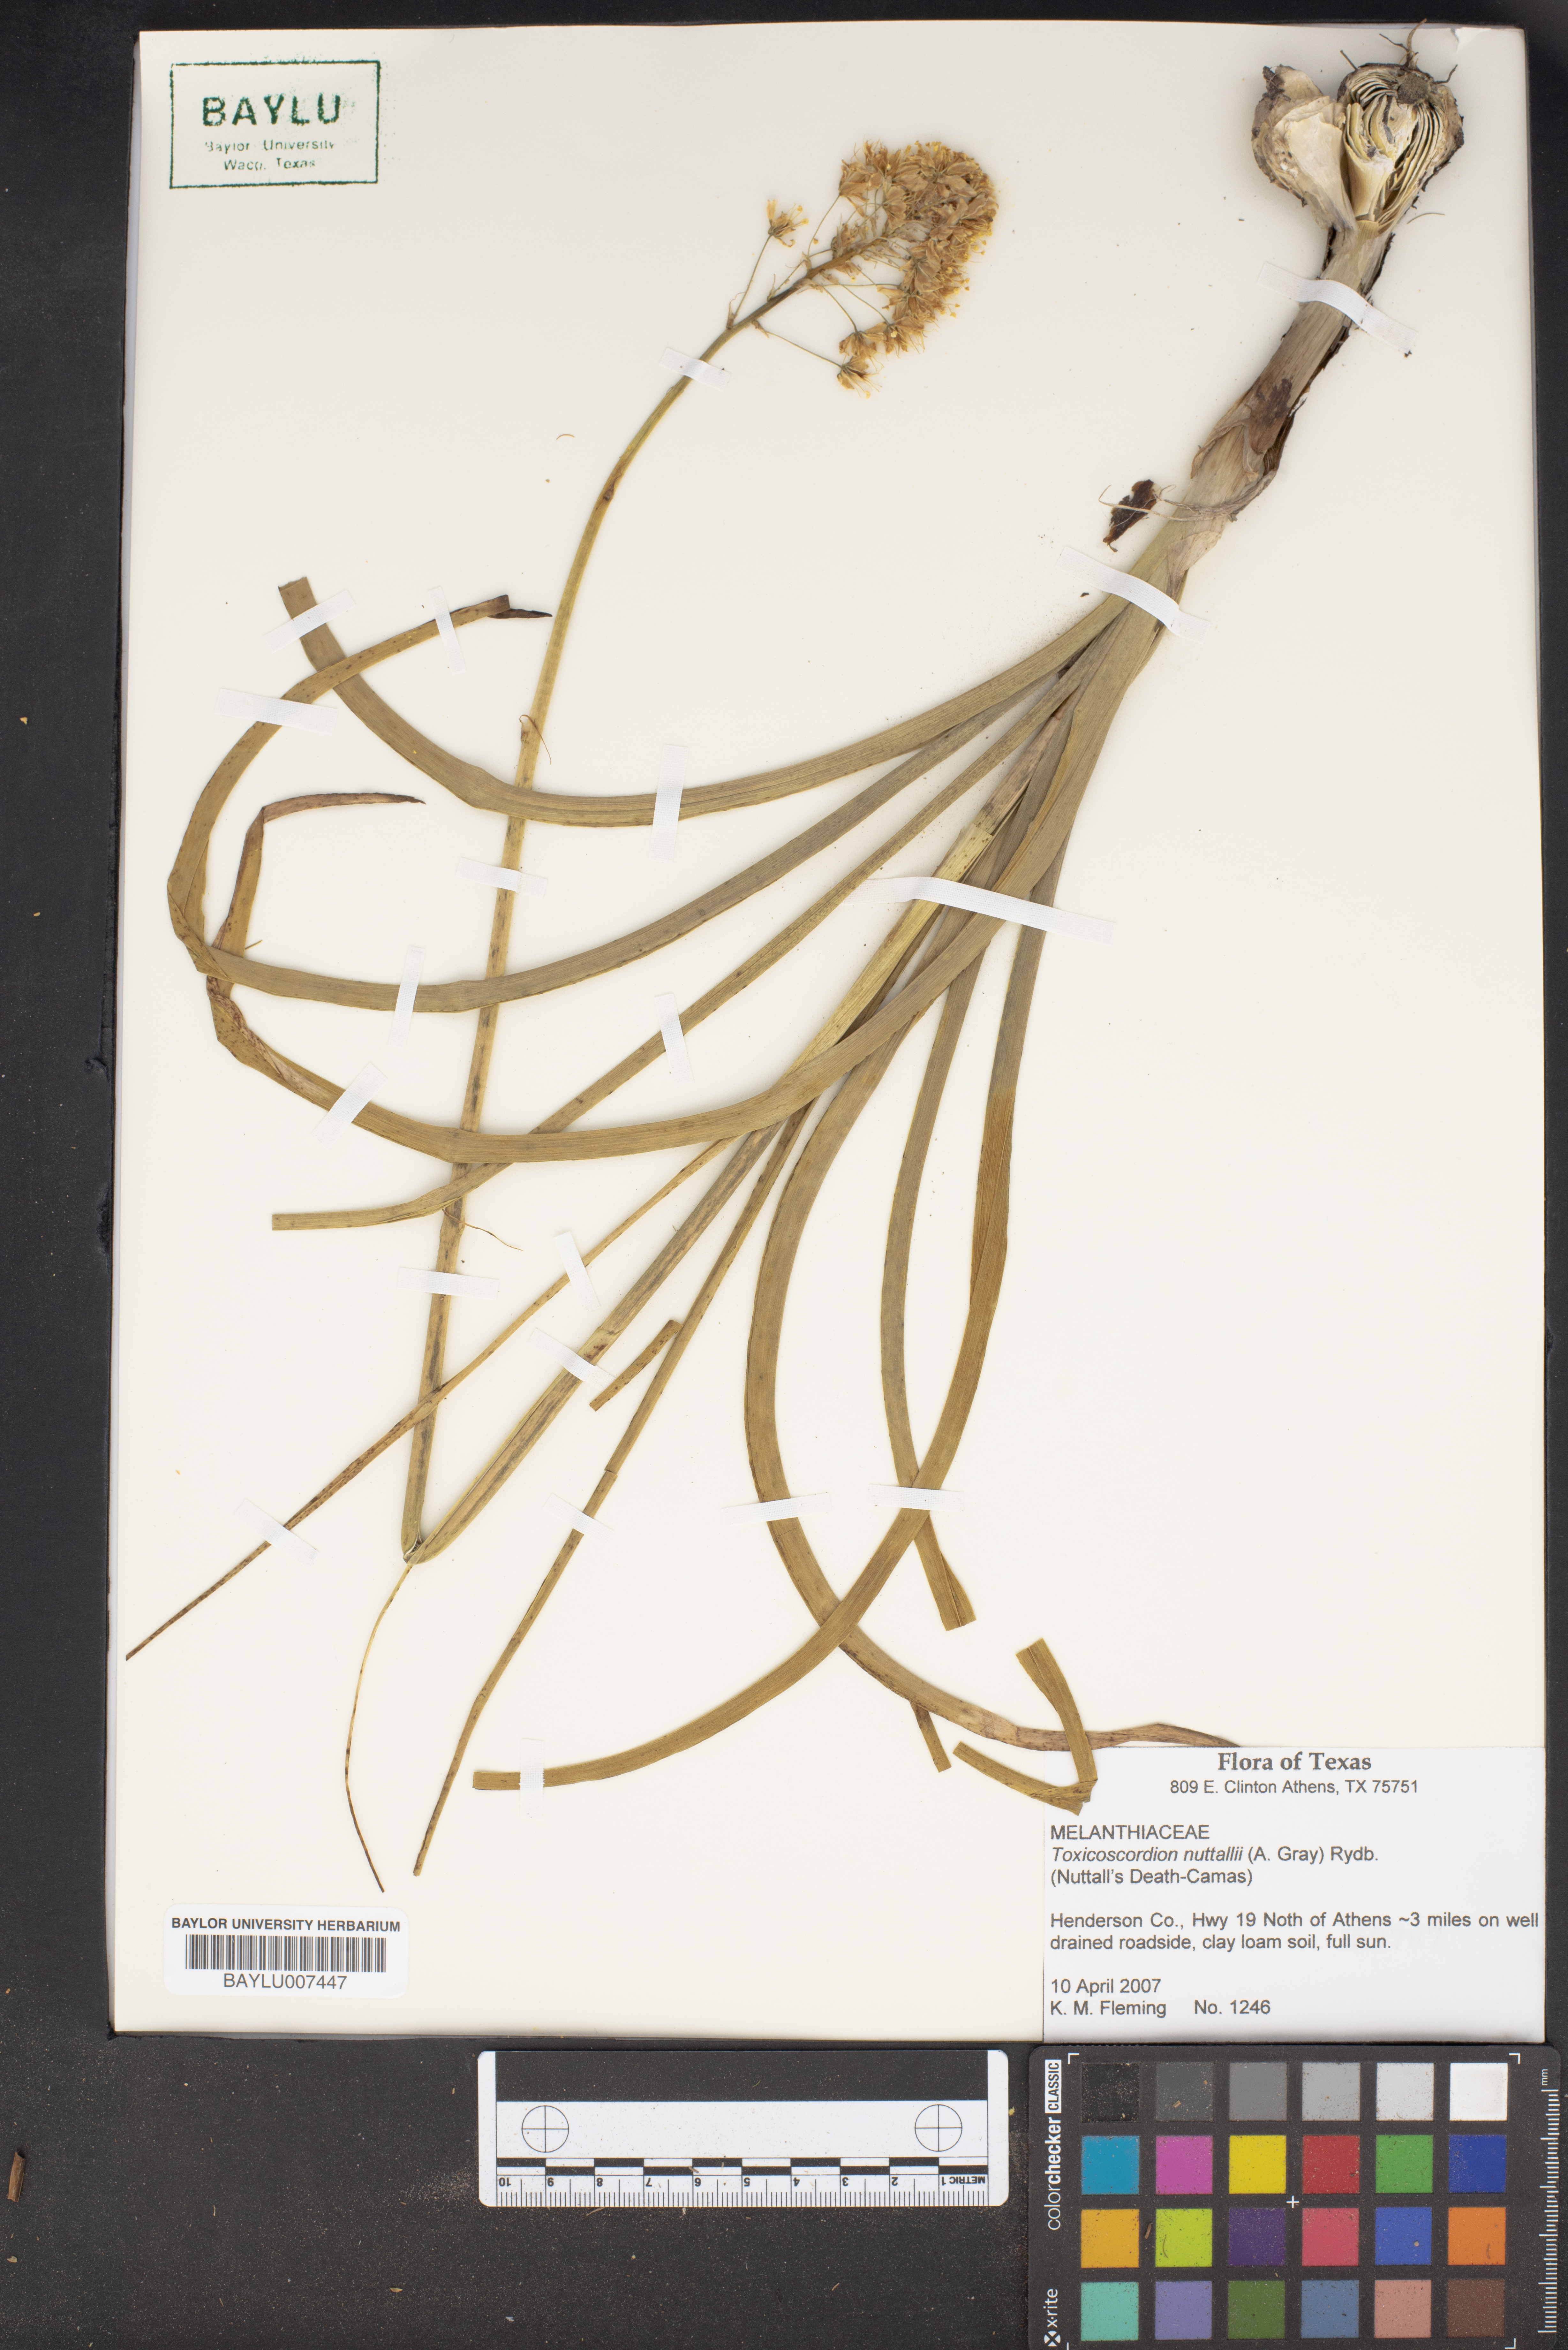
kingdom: Plantae
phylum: Tracheophyta
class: Liliopsida
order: Liliales
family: Melanthiaceae
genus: Toxicoscordion
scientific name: Toxicoscordion nuttallii
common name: Poison sego
